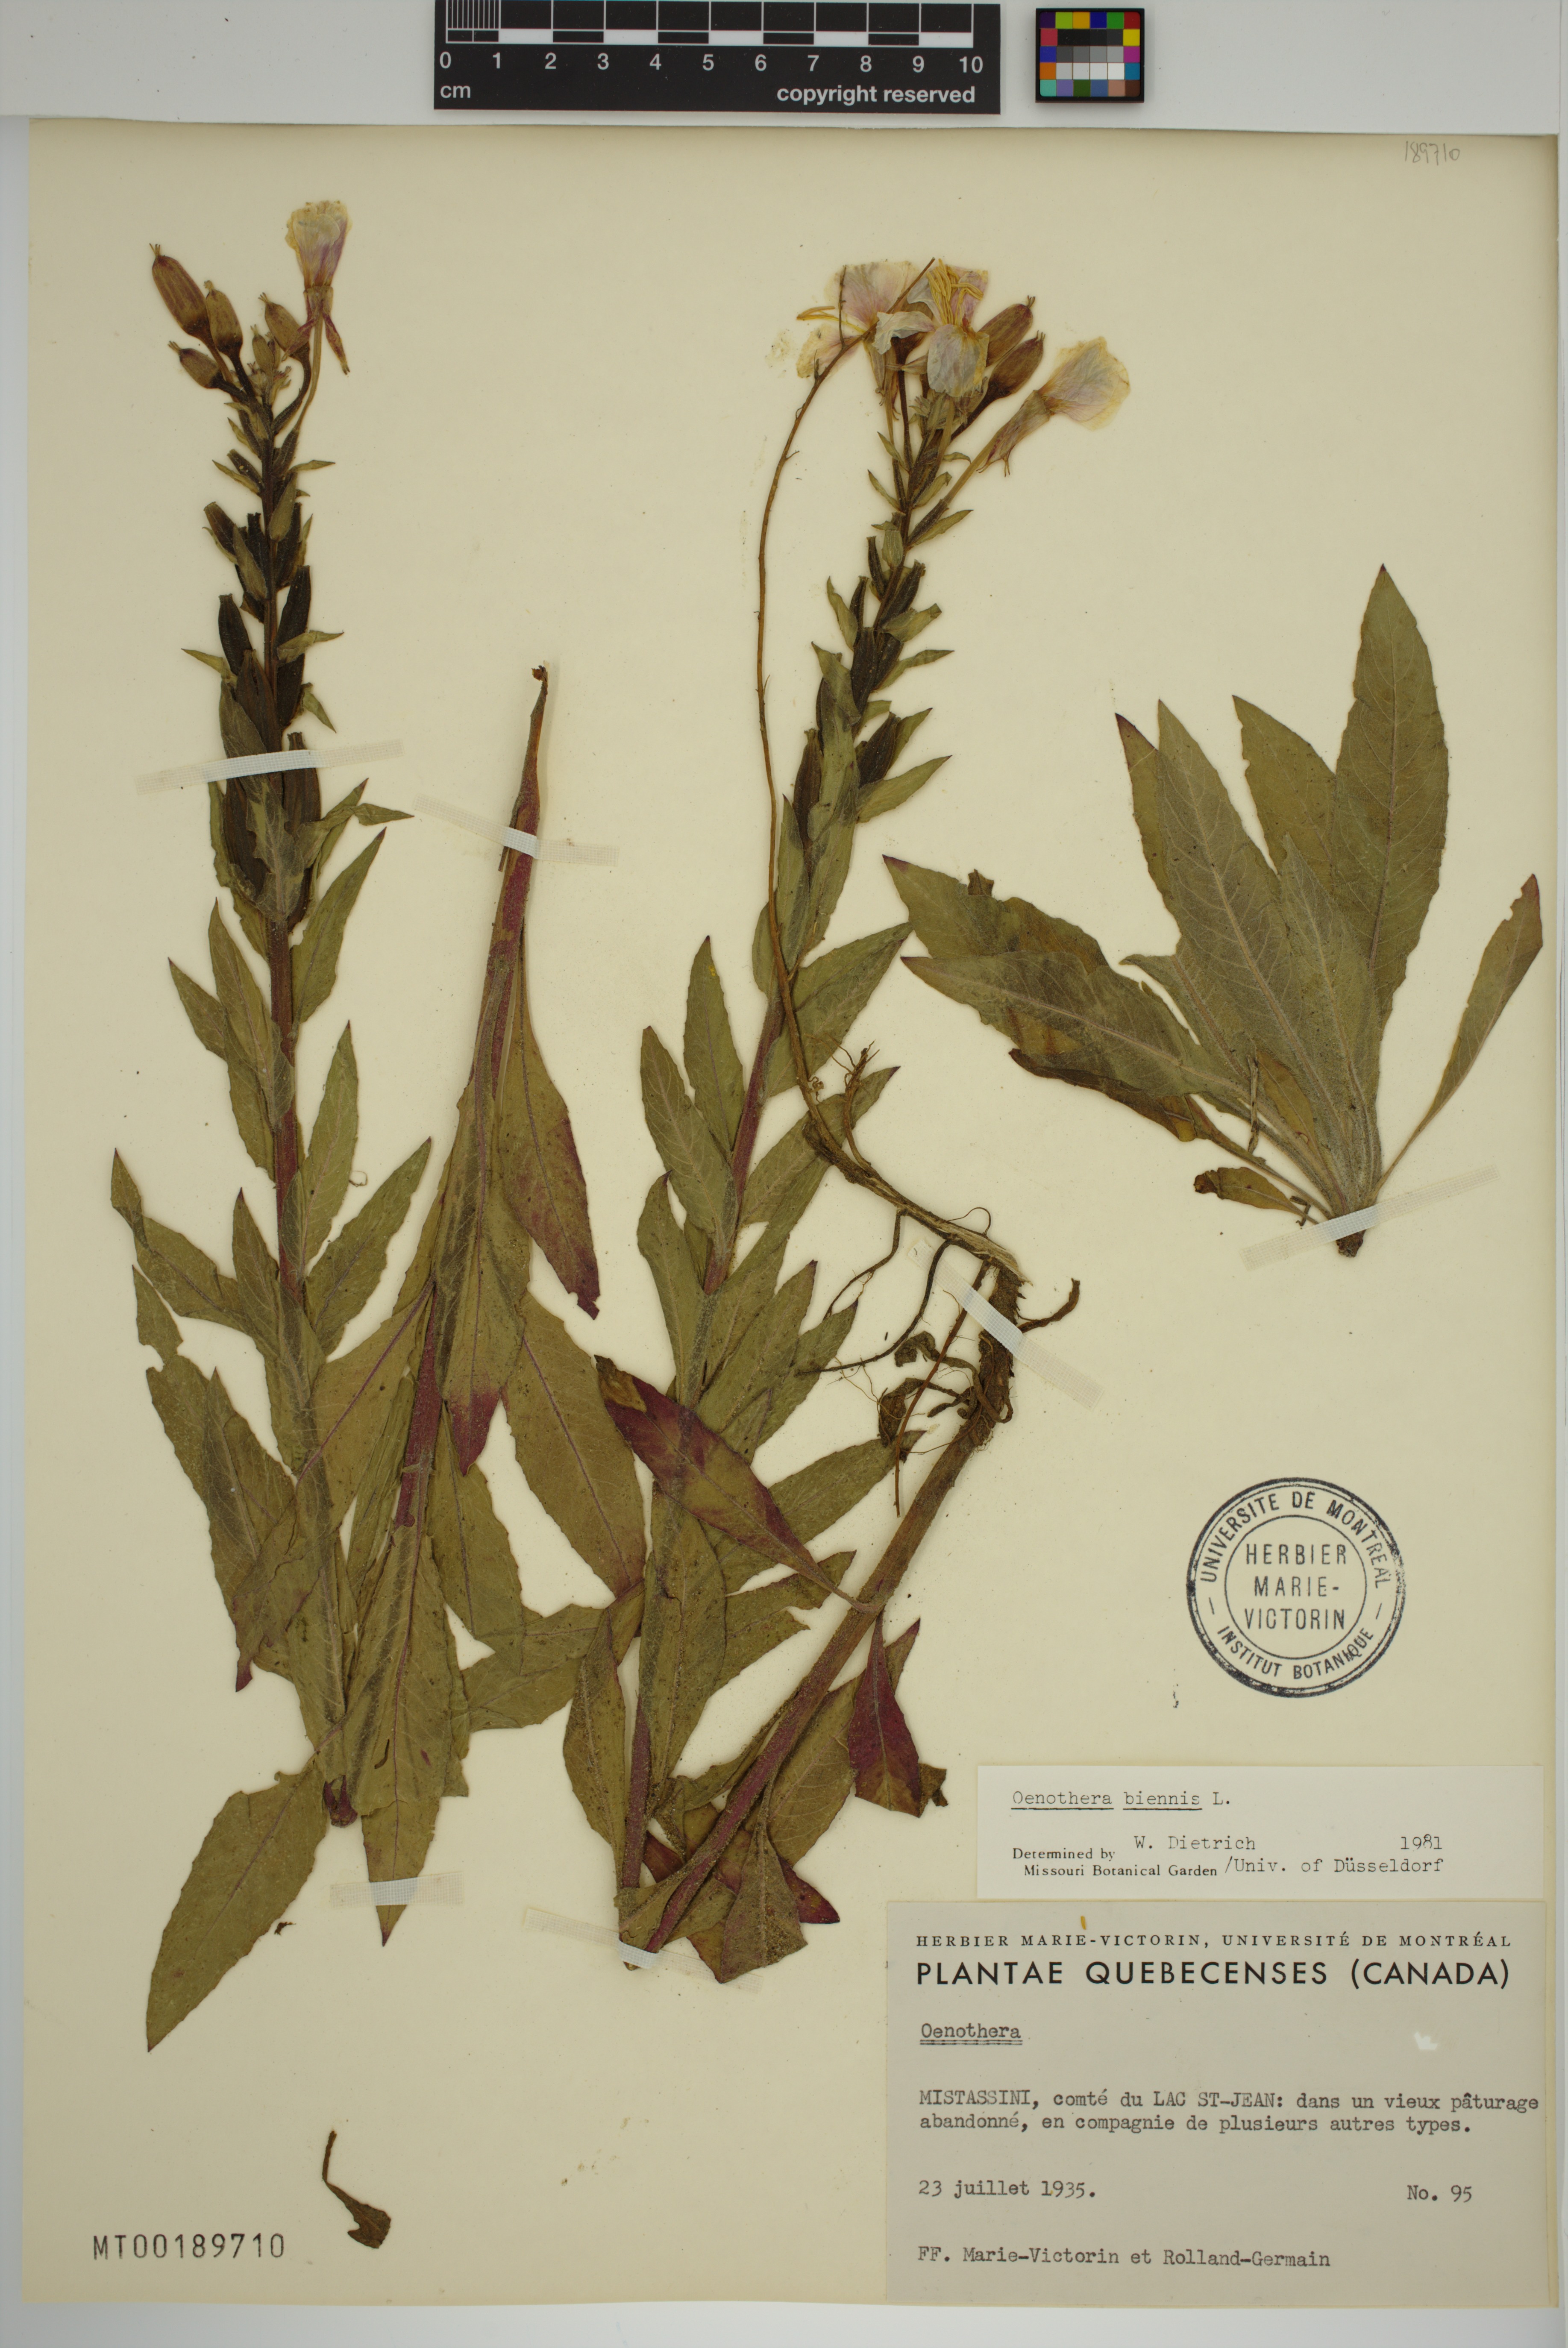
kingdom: Plantae
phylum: Tracheophyta
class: Magnoliopsida
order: Myrtales
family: Onagraceae
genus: Oenothera
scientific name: Oenothera biennis
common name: Common evening-primrose
